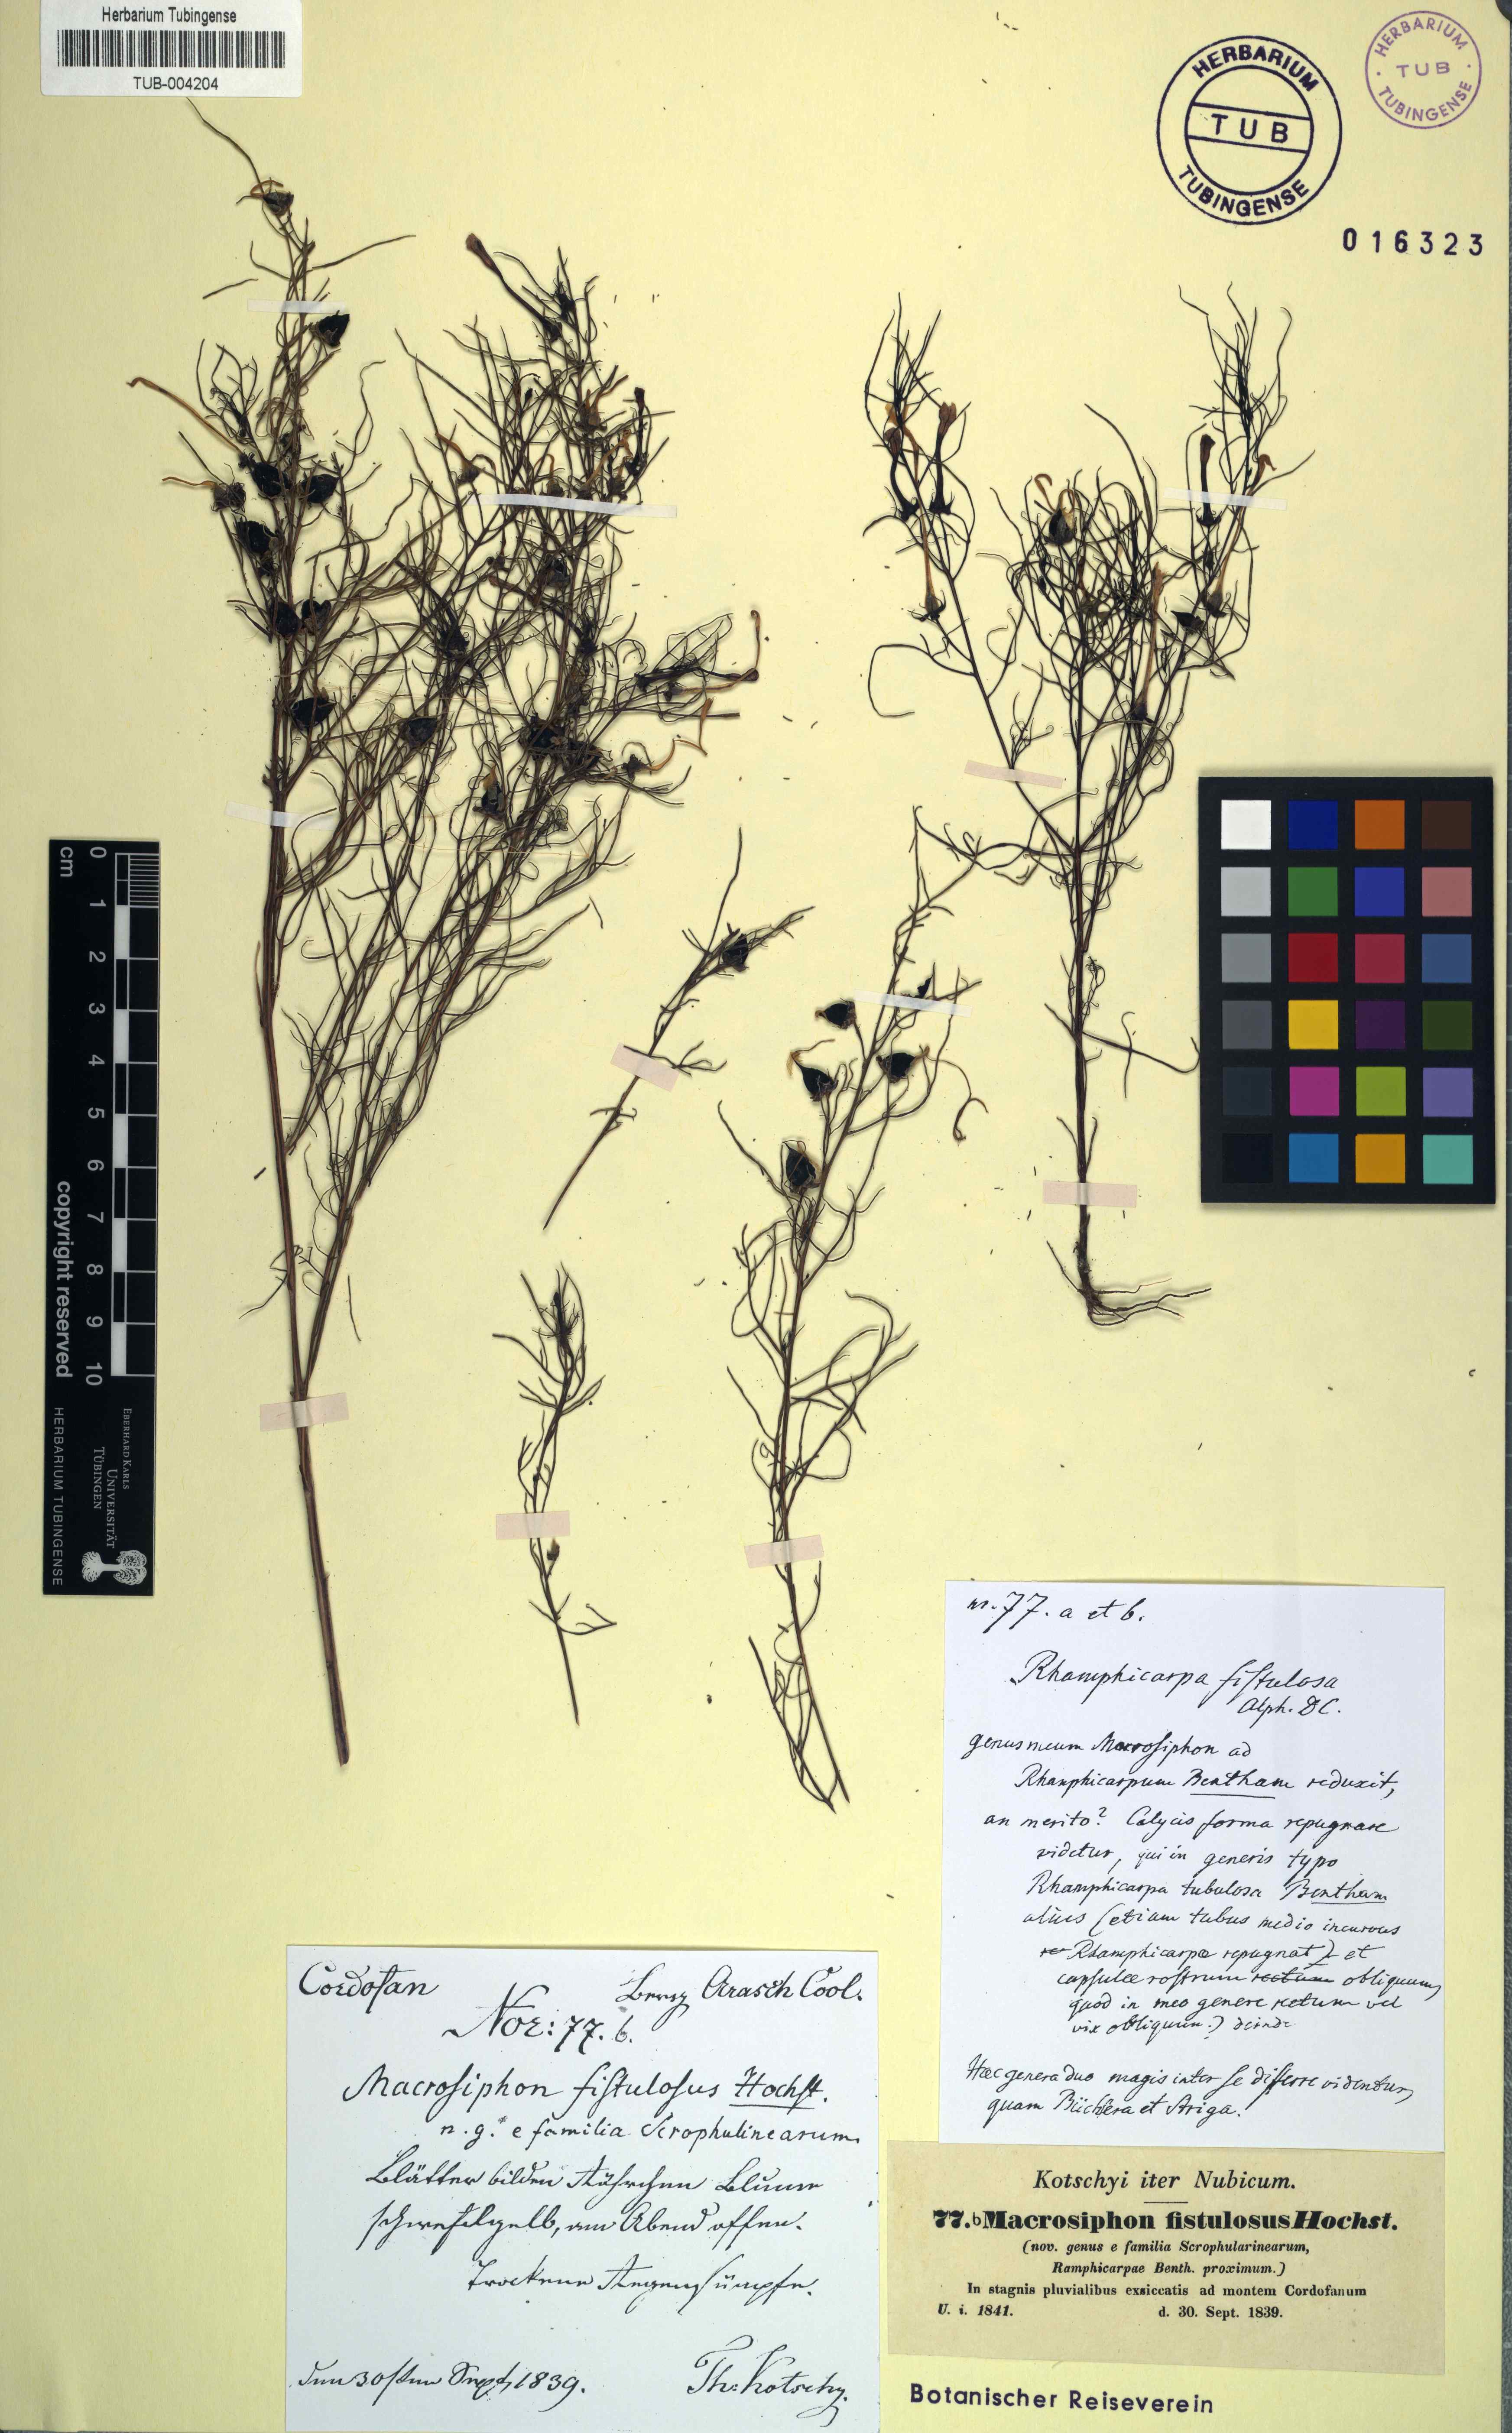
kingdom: Plantae
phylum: Tracheophyta
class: Magnoliopsida
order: Lamiales
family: Orobanchaceae
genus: Rhamphicarpa
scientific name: Rhamphicarpa elongata
